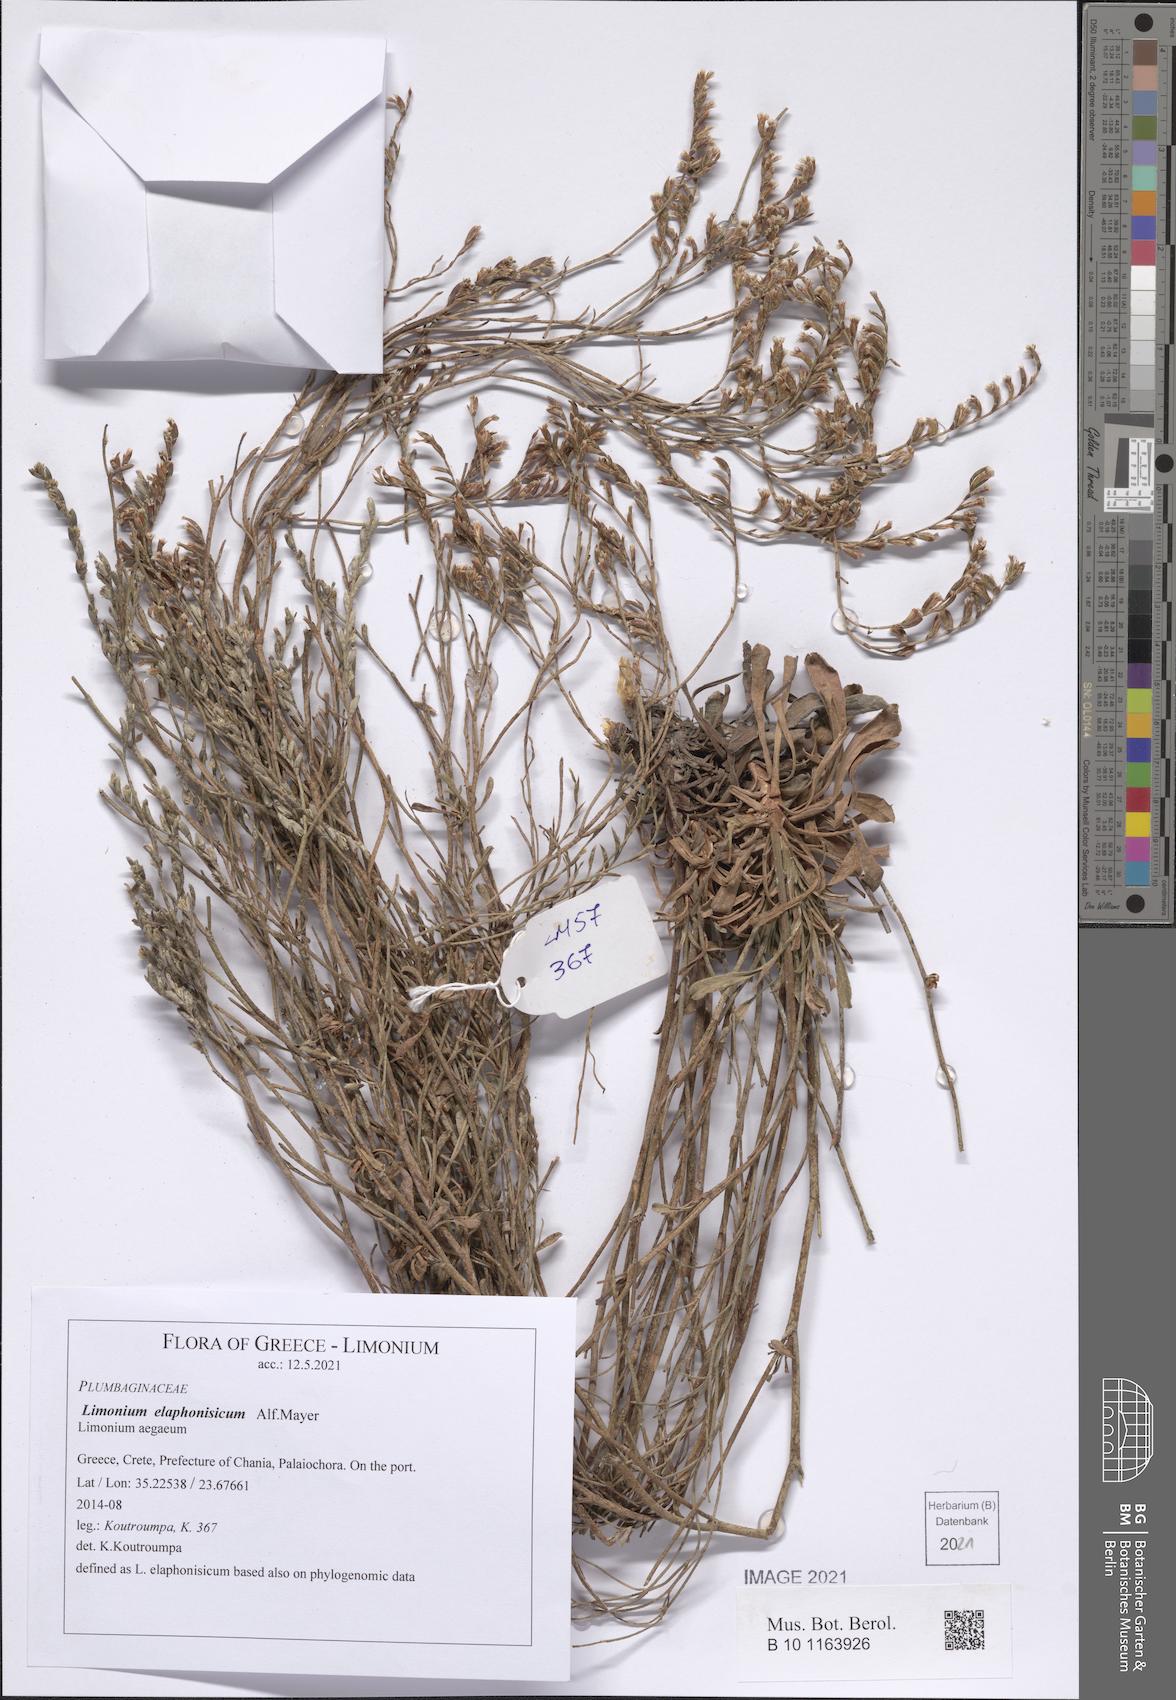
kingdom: Plantae
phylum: Tracheophyta
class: Magnoliopsida
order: Caryophyllales
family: Plumbaginaceae
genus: Limonium
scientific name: Limonium elaphonisicum
